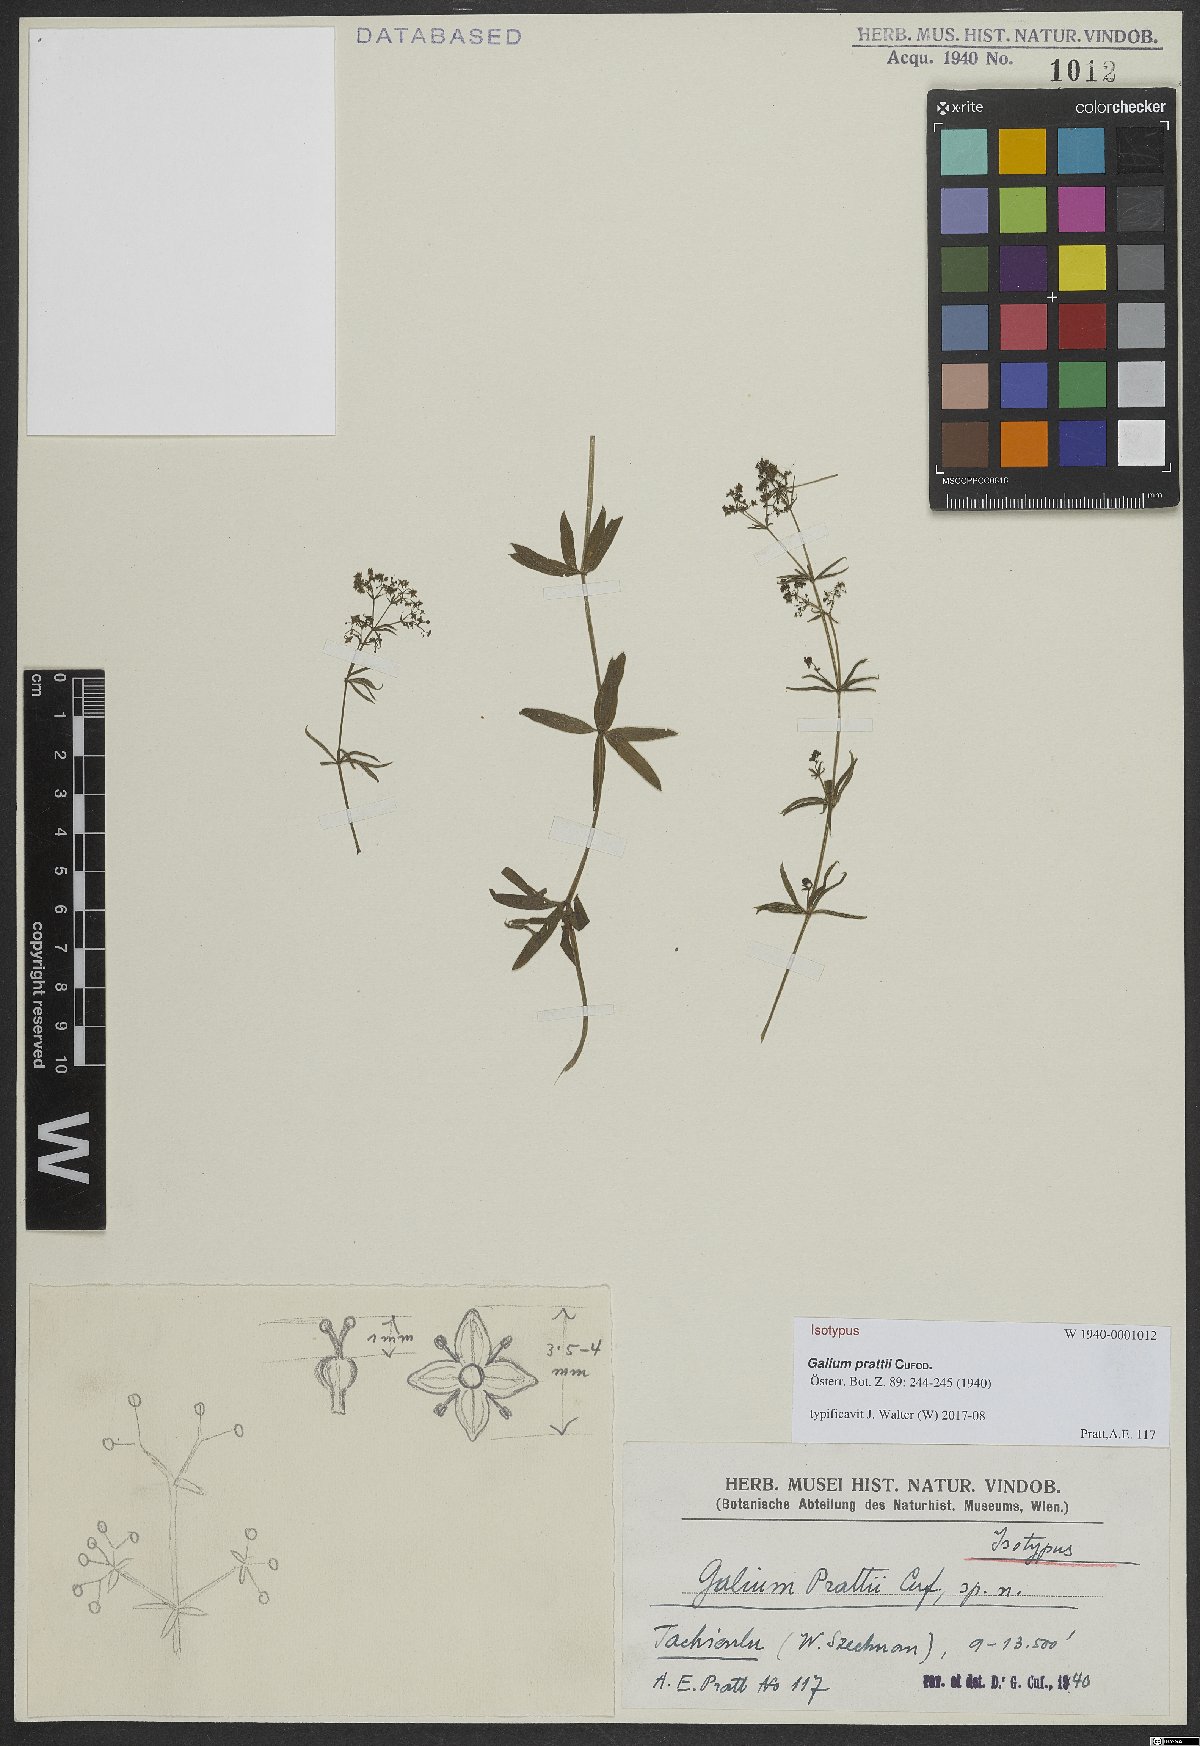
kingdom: Plantae
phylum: Tracheophyta
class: Magnoliopsida
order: Gentianales
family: Rubiaceae
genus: Galium
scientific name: Galium prattii
